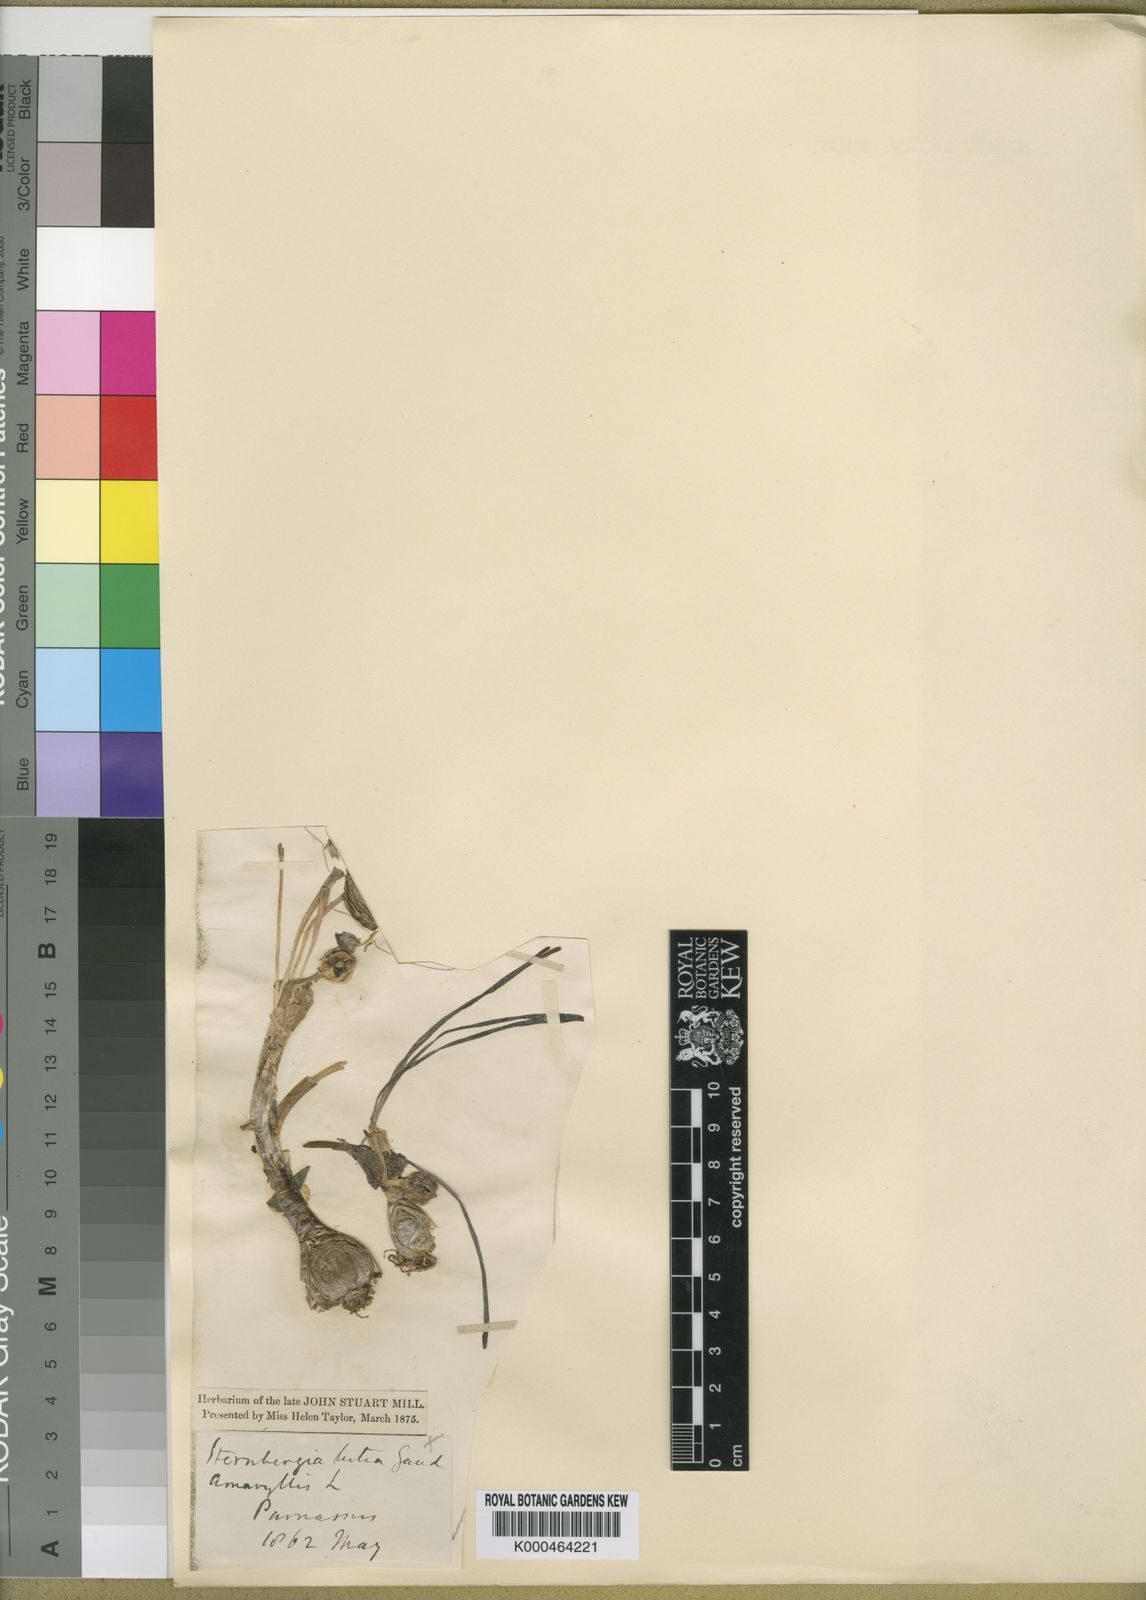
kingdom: Plantae
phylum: Tracheophyta
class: Liliopsida
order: Asparagales
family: Amaryllidaceae
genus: Sternbergia
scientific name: Sternbergia
